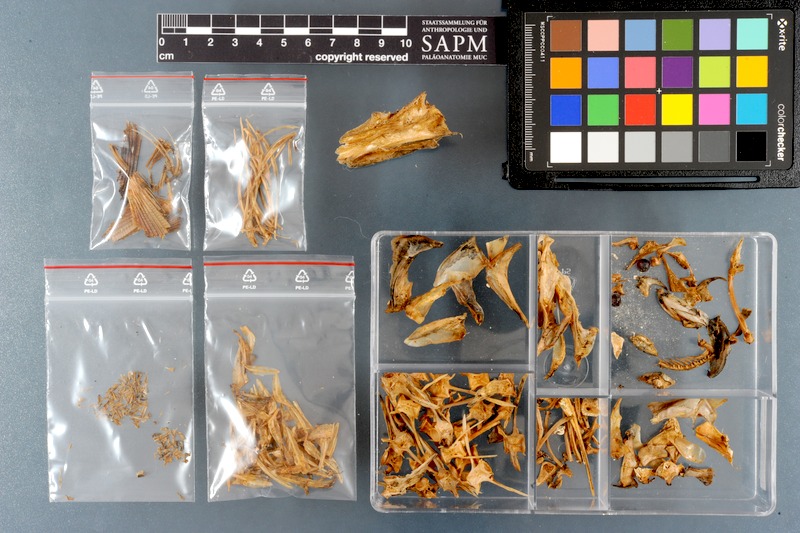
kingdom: Animalia
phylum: Chordata
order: Perciformes
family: Carangidae
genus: Trachinotus
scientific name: Trachinotus baillonii
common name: Smallspotted dart
